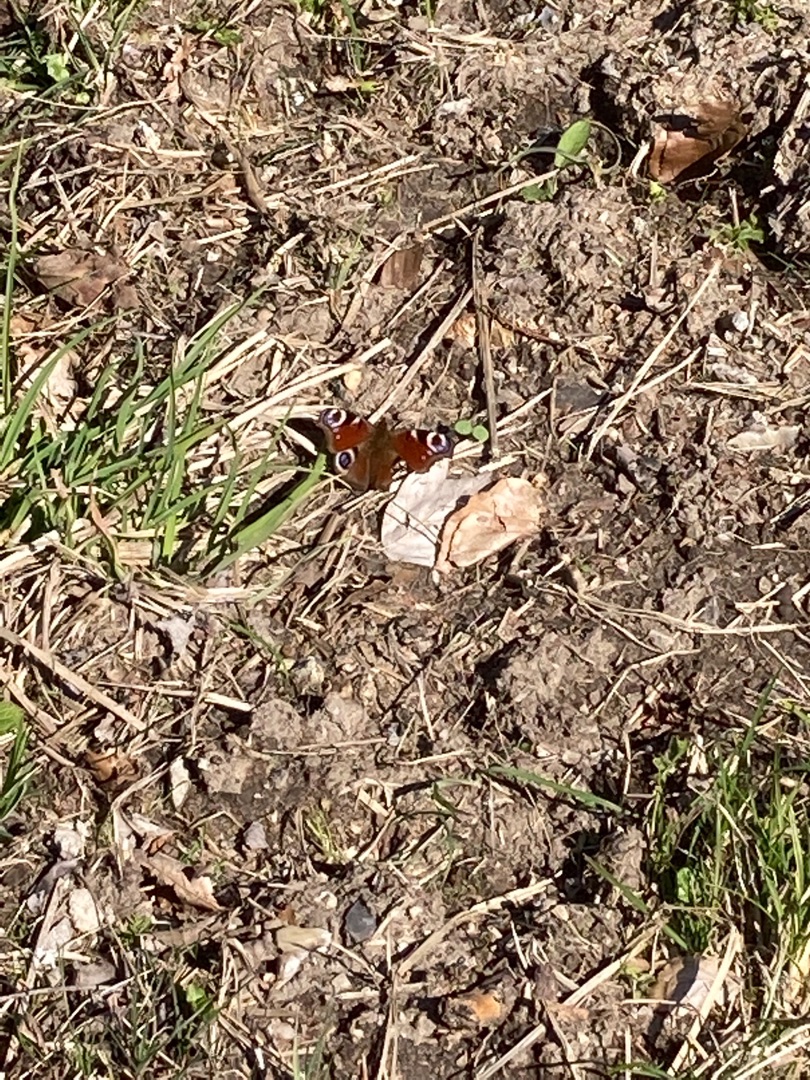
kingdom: Animalia
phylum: Arthropoda
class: Insecta
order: Lepidoptera
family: Nymphalidae
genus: Aglais
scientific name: Aglais io
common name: Dagpåfugleøje
